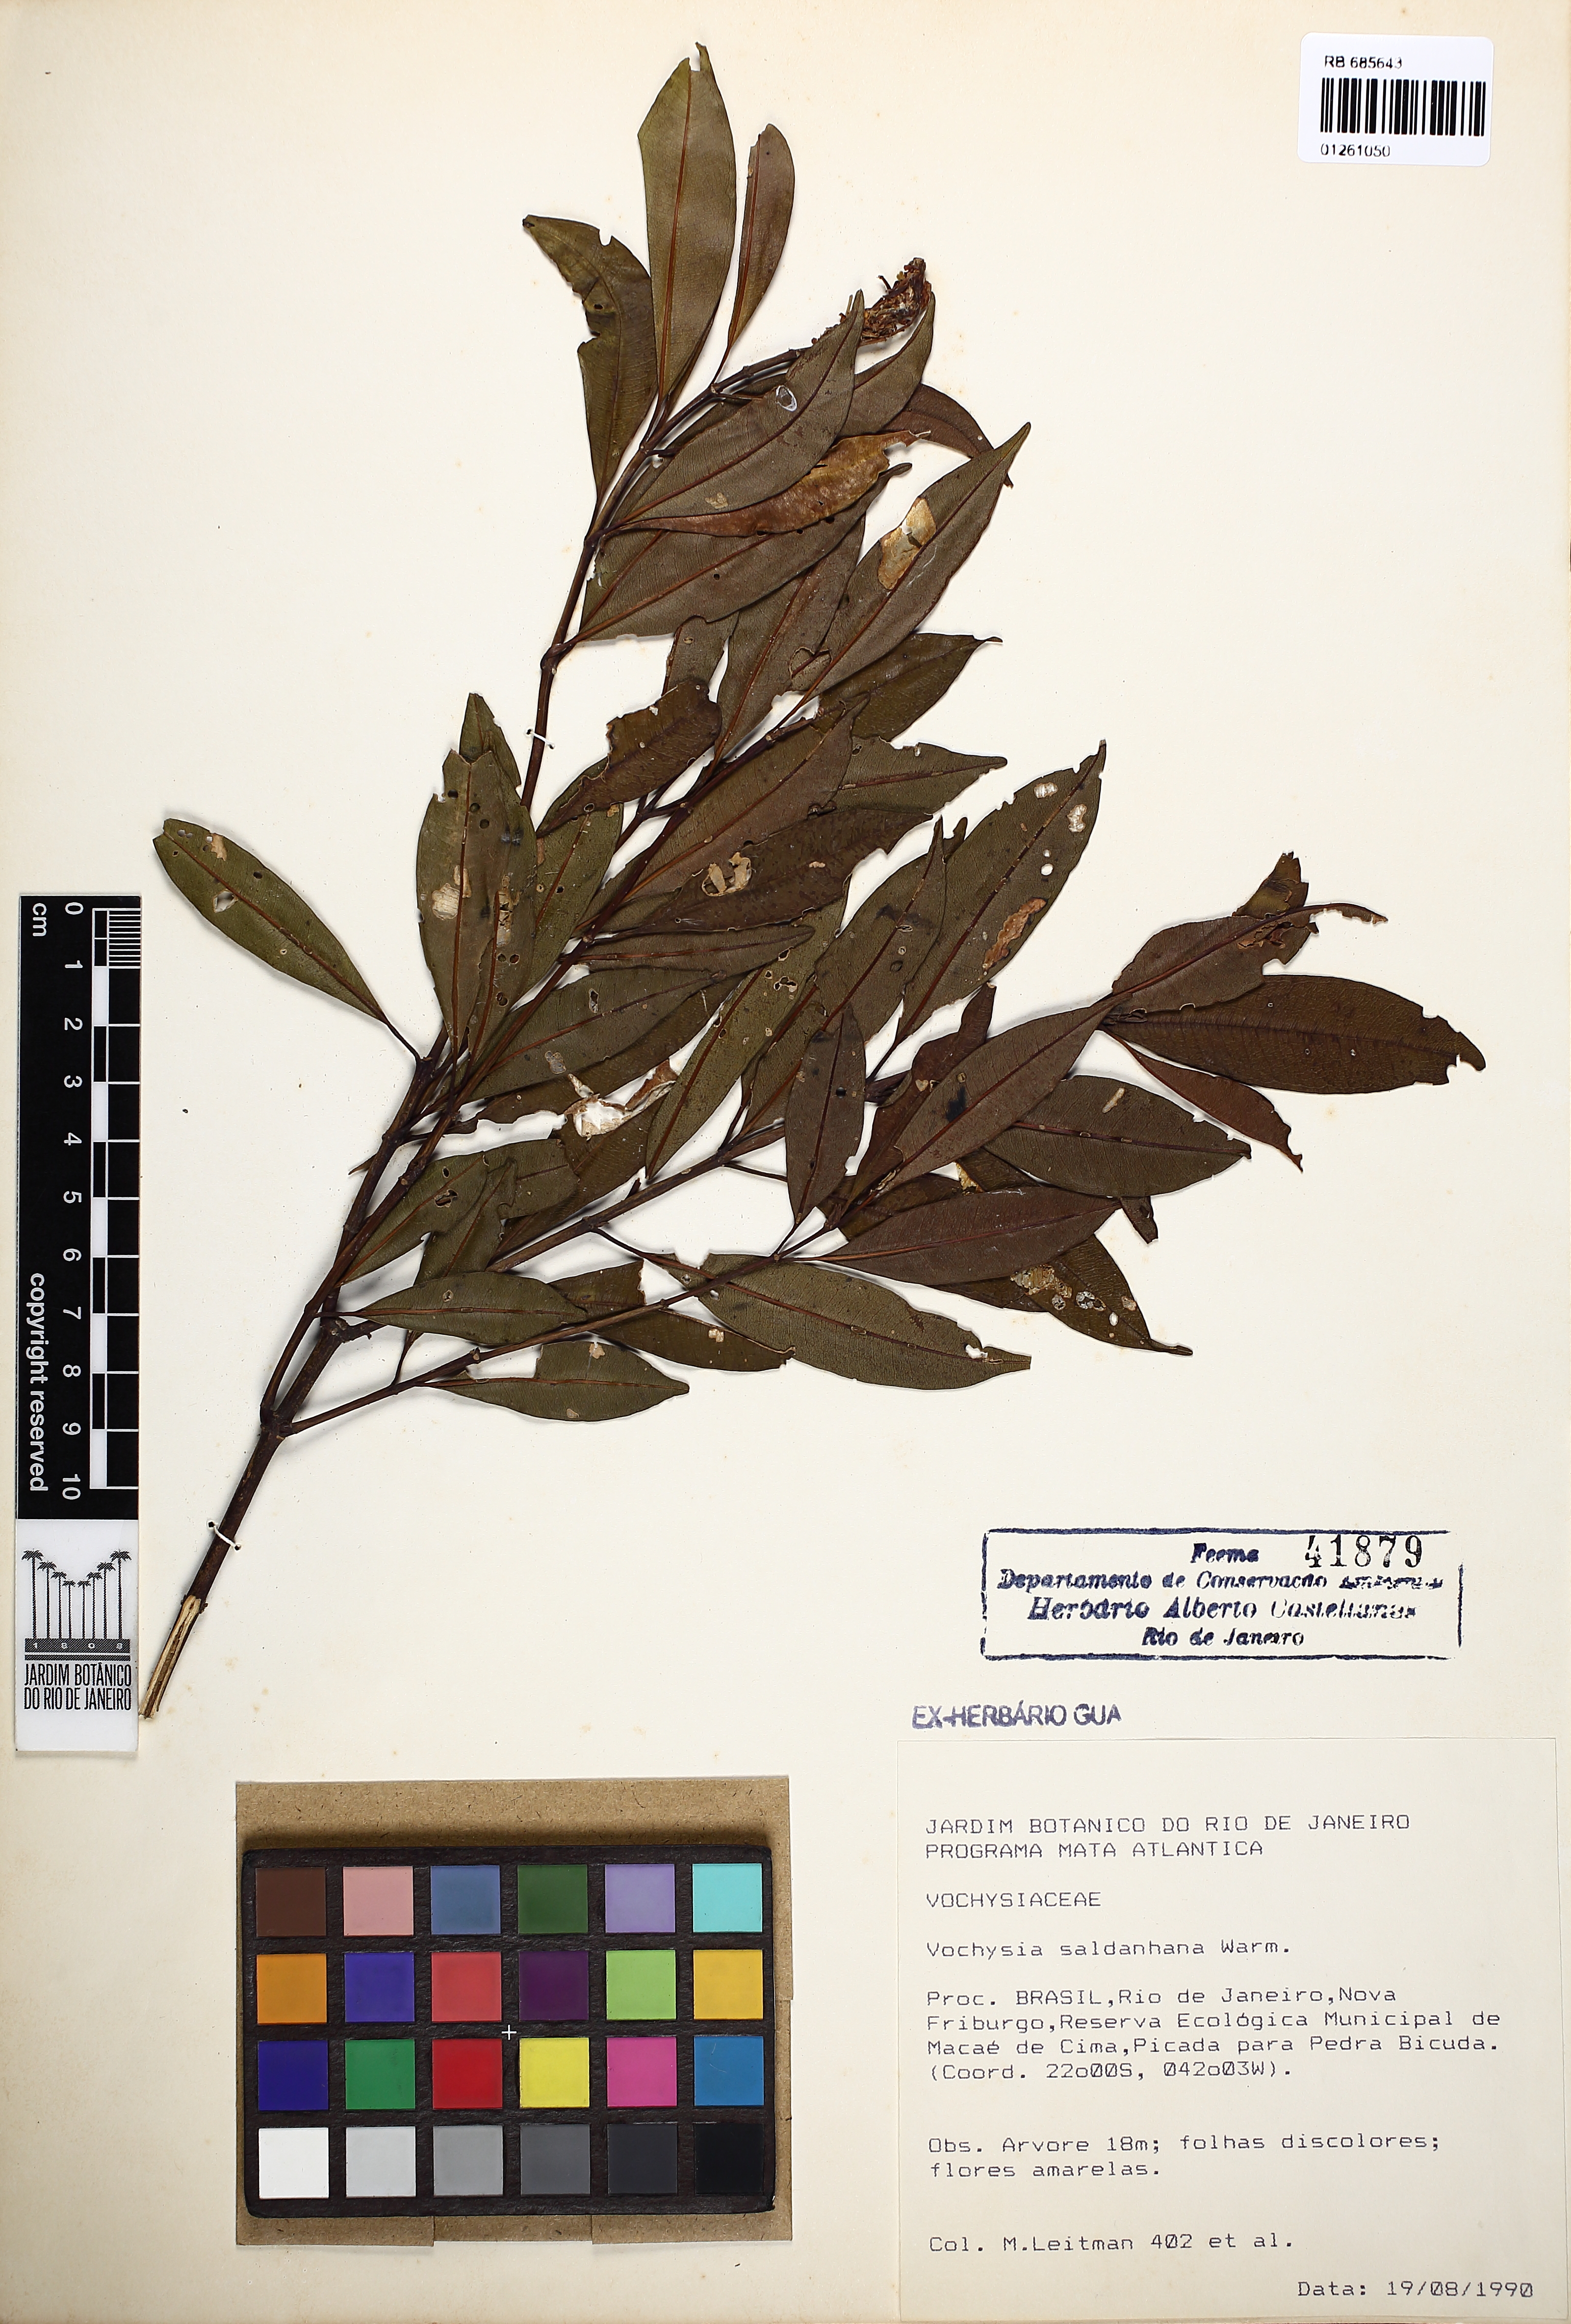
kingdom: Plantae
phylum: Tracheophyta
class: Magnoliopsida
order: Myrtales
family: Vochysiaceae
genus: Vochysia
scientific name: Vochysia saldanhana
